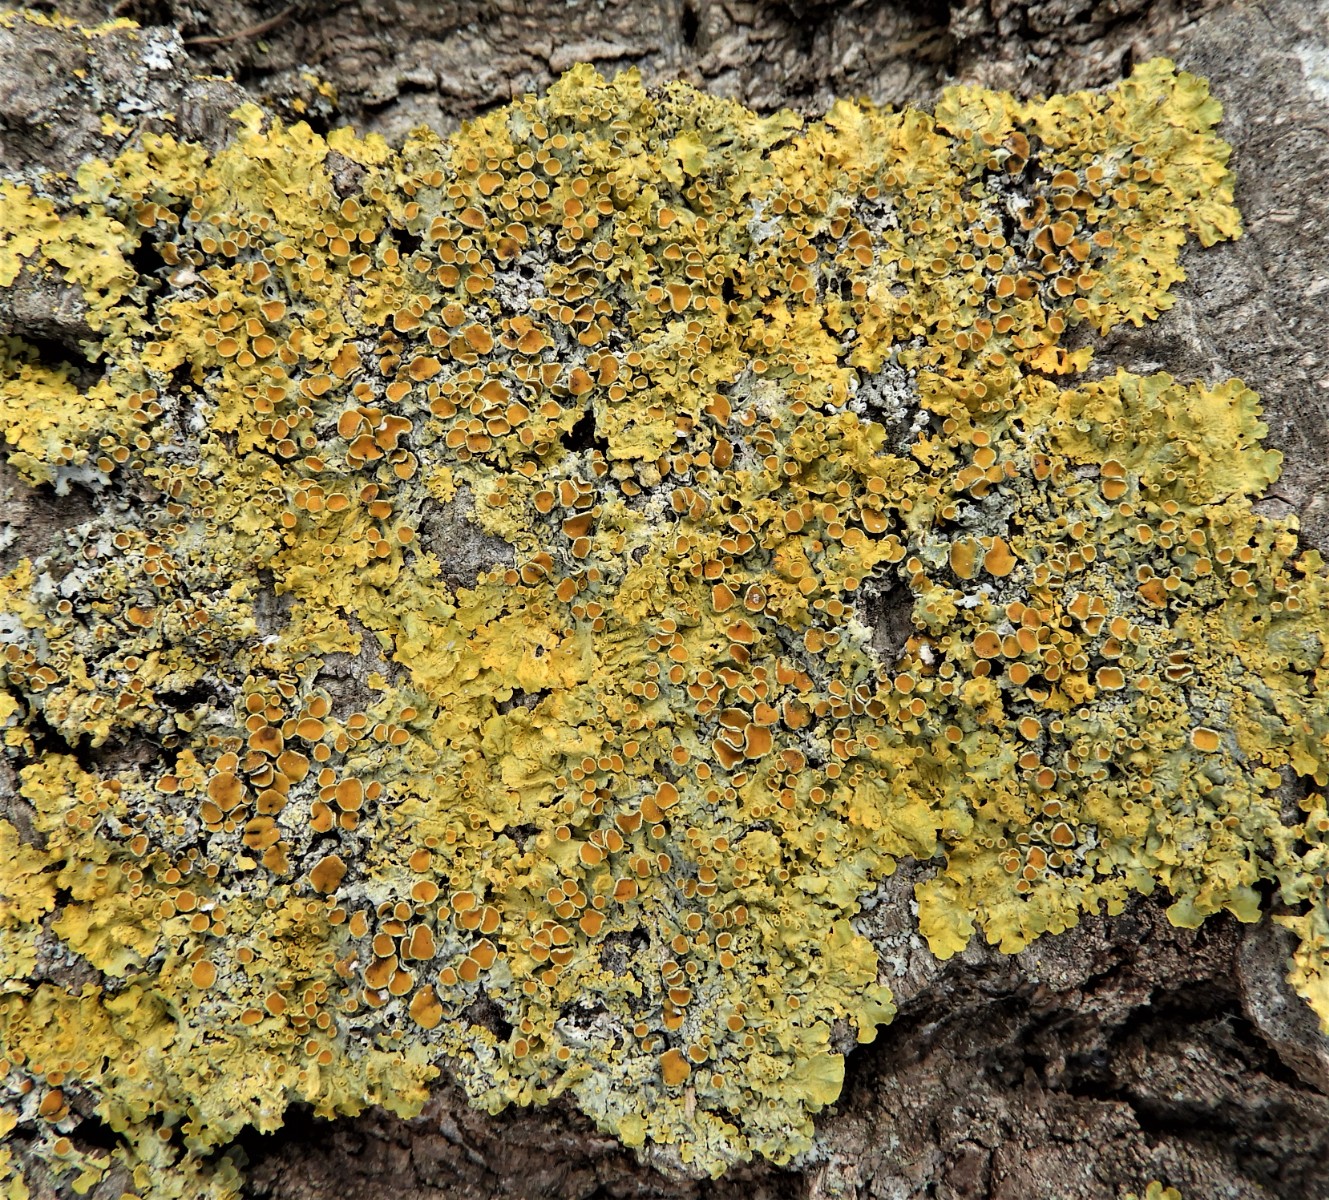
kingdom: Fungi
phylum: Ascomycota
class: Lecanoromycetes
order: Teloschistales
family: Teloschistaceae
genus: Xanthoria
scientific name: Xanthoria parietina
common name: almindelig væggelav
